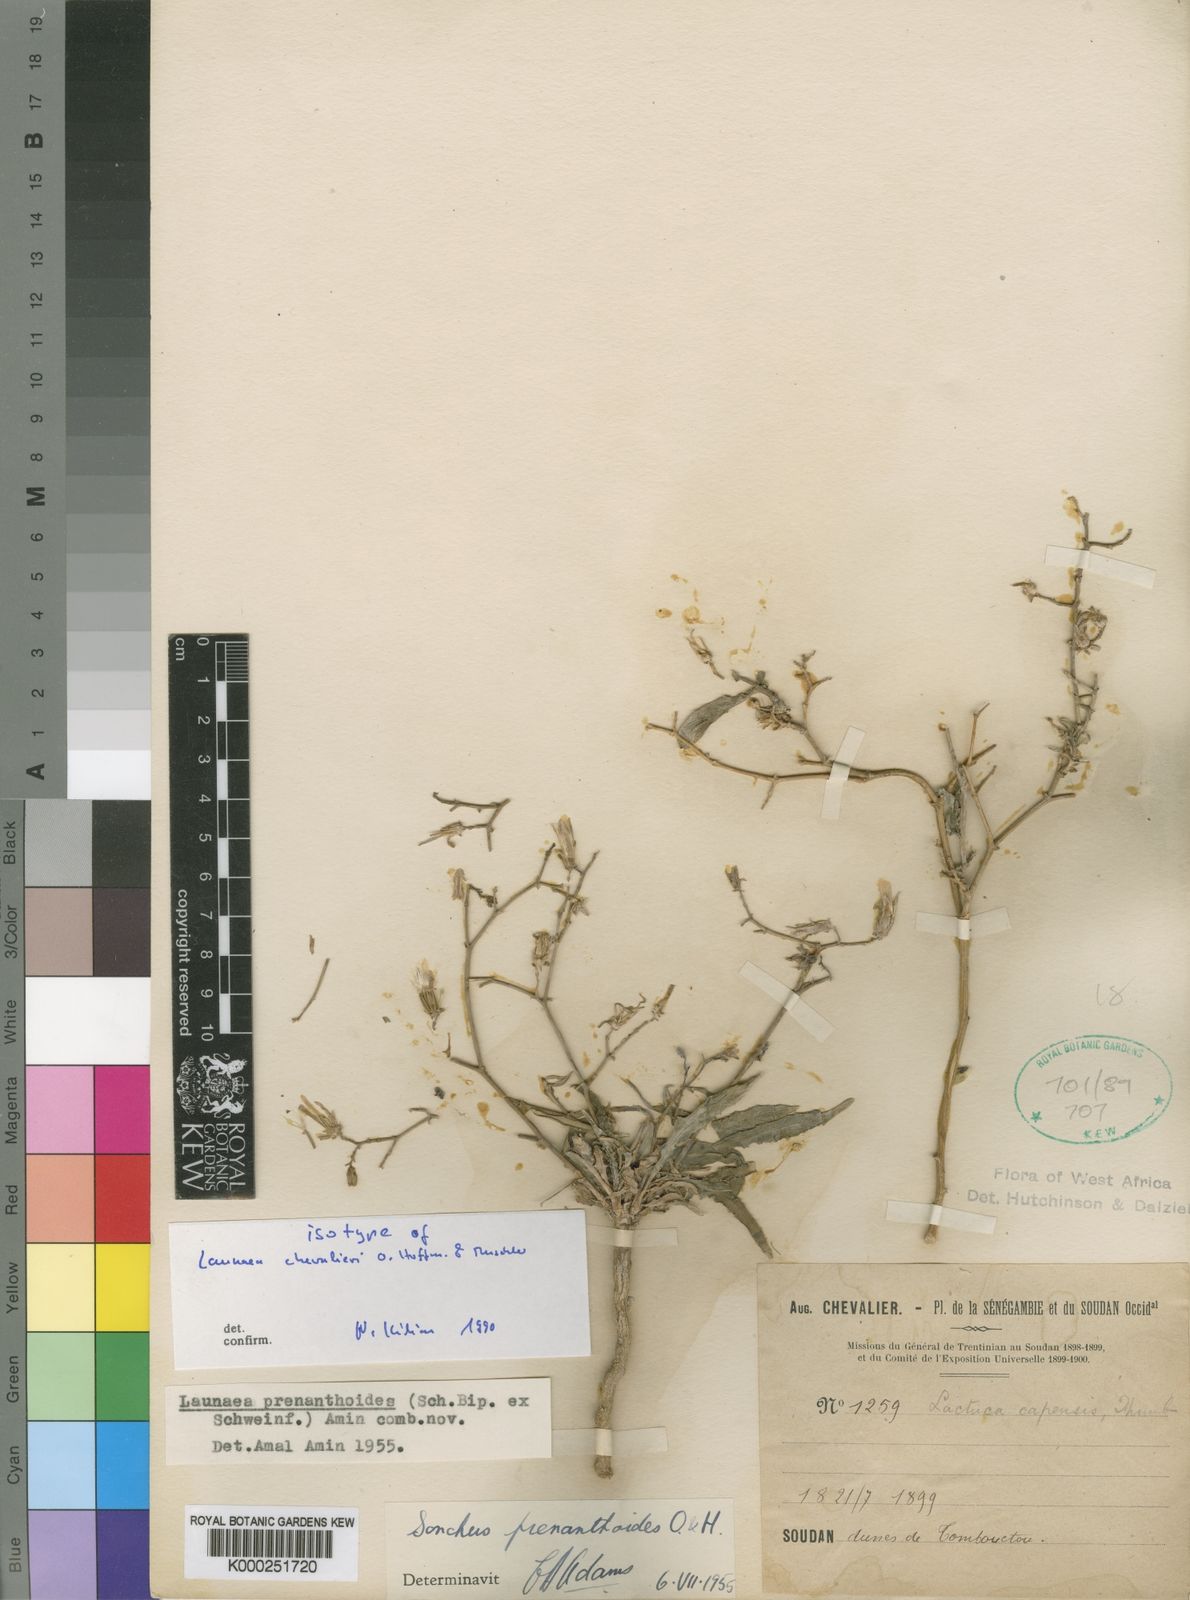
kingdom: Plantae
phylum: Tracheophyta
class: Magnoliopsida
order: Asterales
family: Asteraceae
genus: Launaea
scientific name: Launaea brunneri
